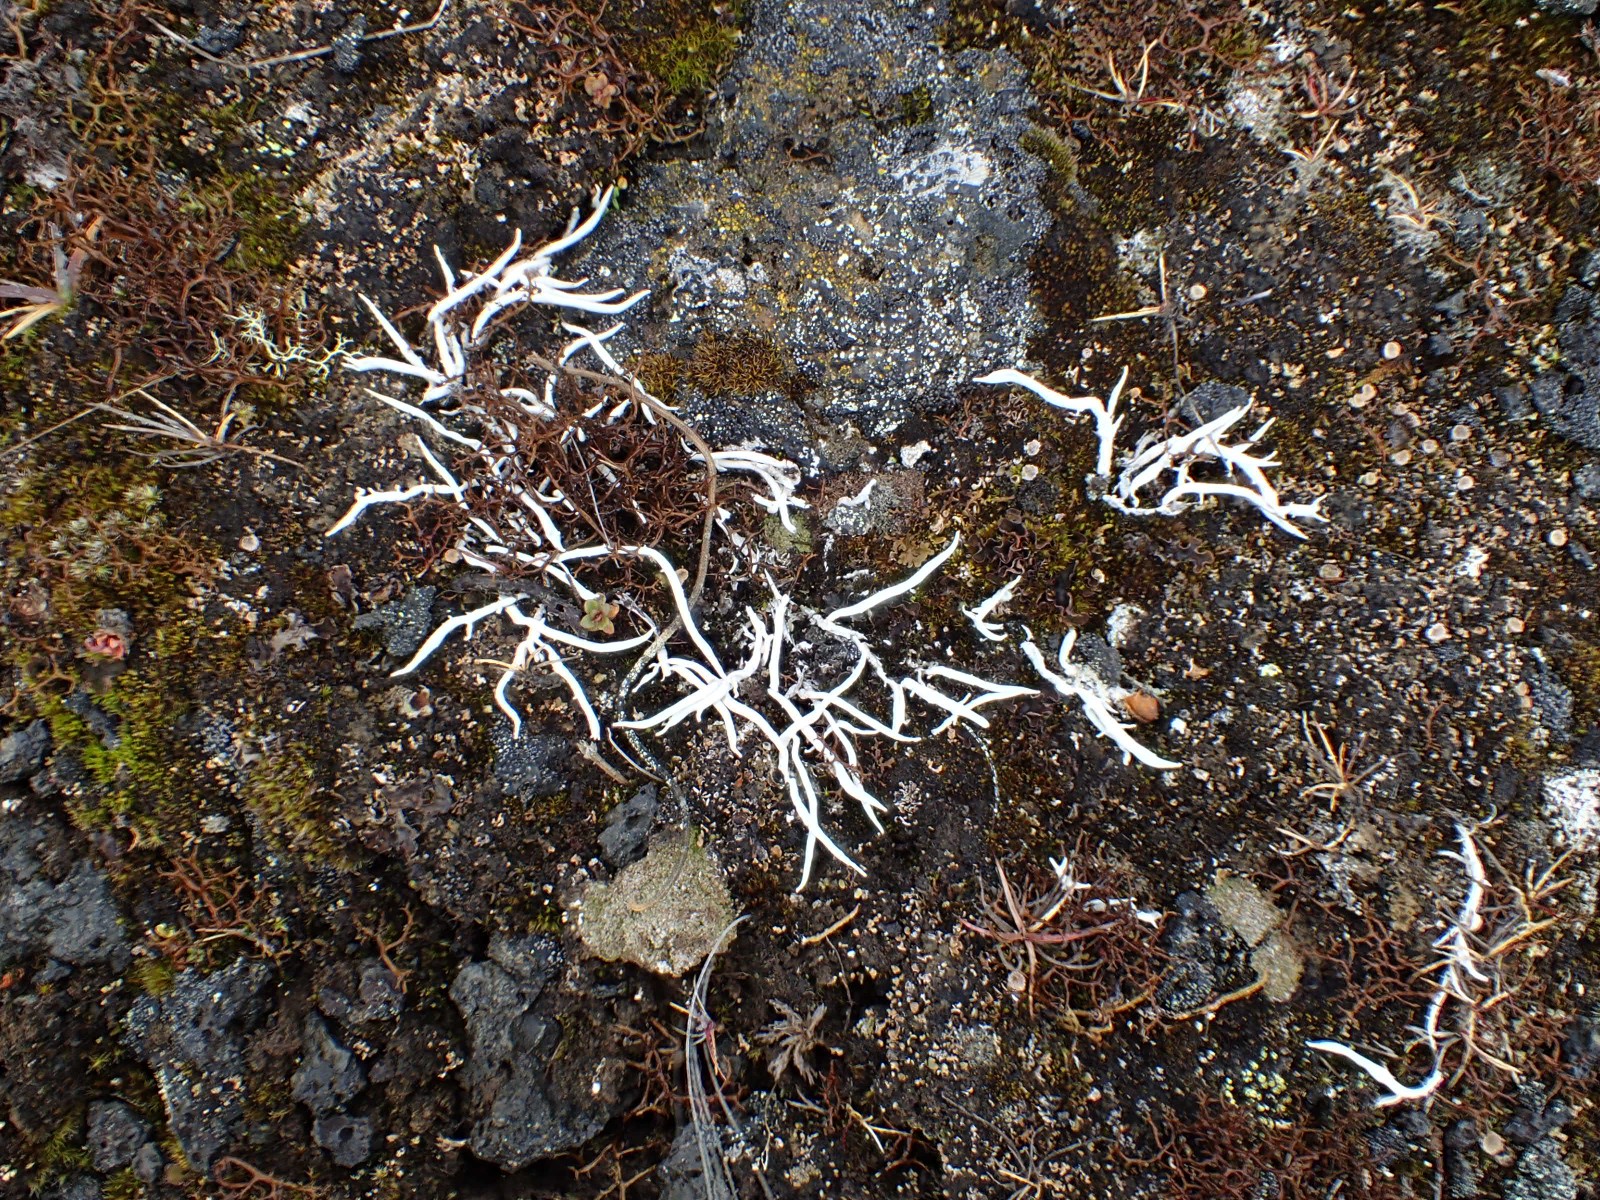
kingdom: Fungi
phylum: Ascomycota
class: Lecanoromycetes
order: Pertusariales
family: Icmadophilaceae
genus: Thamnolia
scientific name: Thamnolia vermicularis
